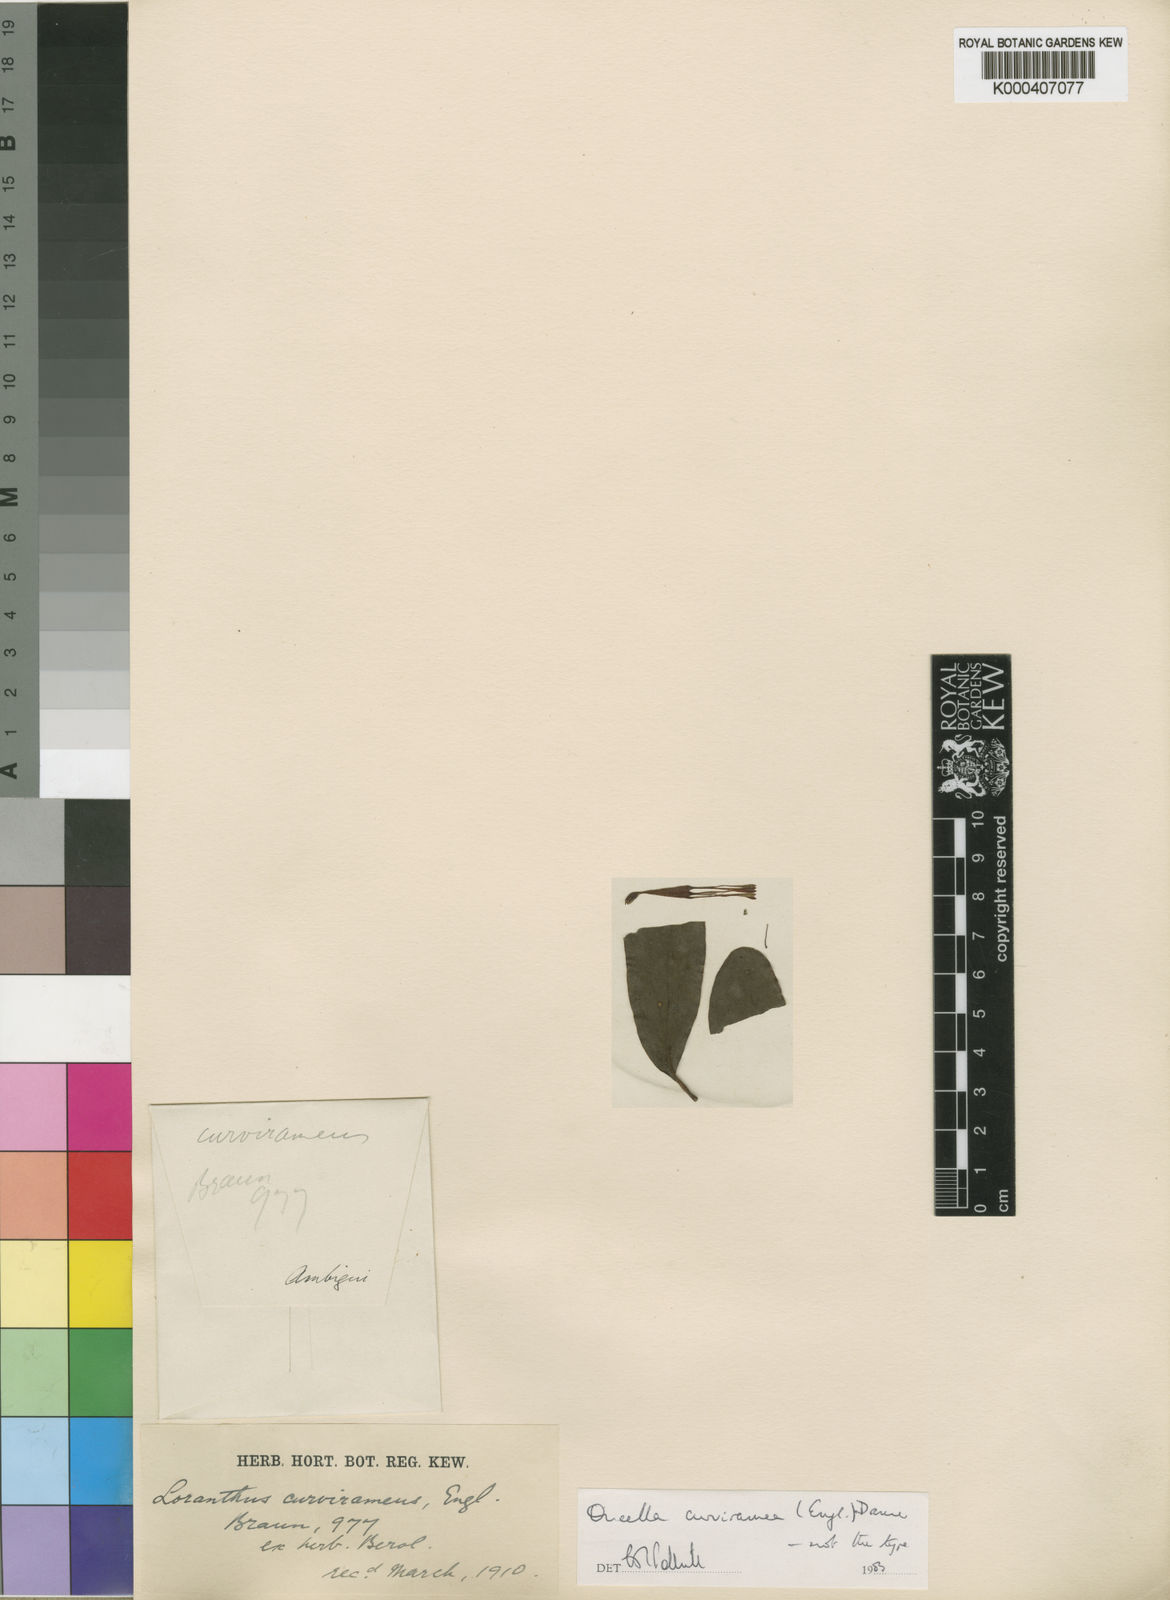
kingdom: Plantae
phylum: Tracheophyta
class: Magnoliopsida
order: Santalales
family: Loranthaceae
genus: Oncella
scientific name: Oncella curviramea
